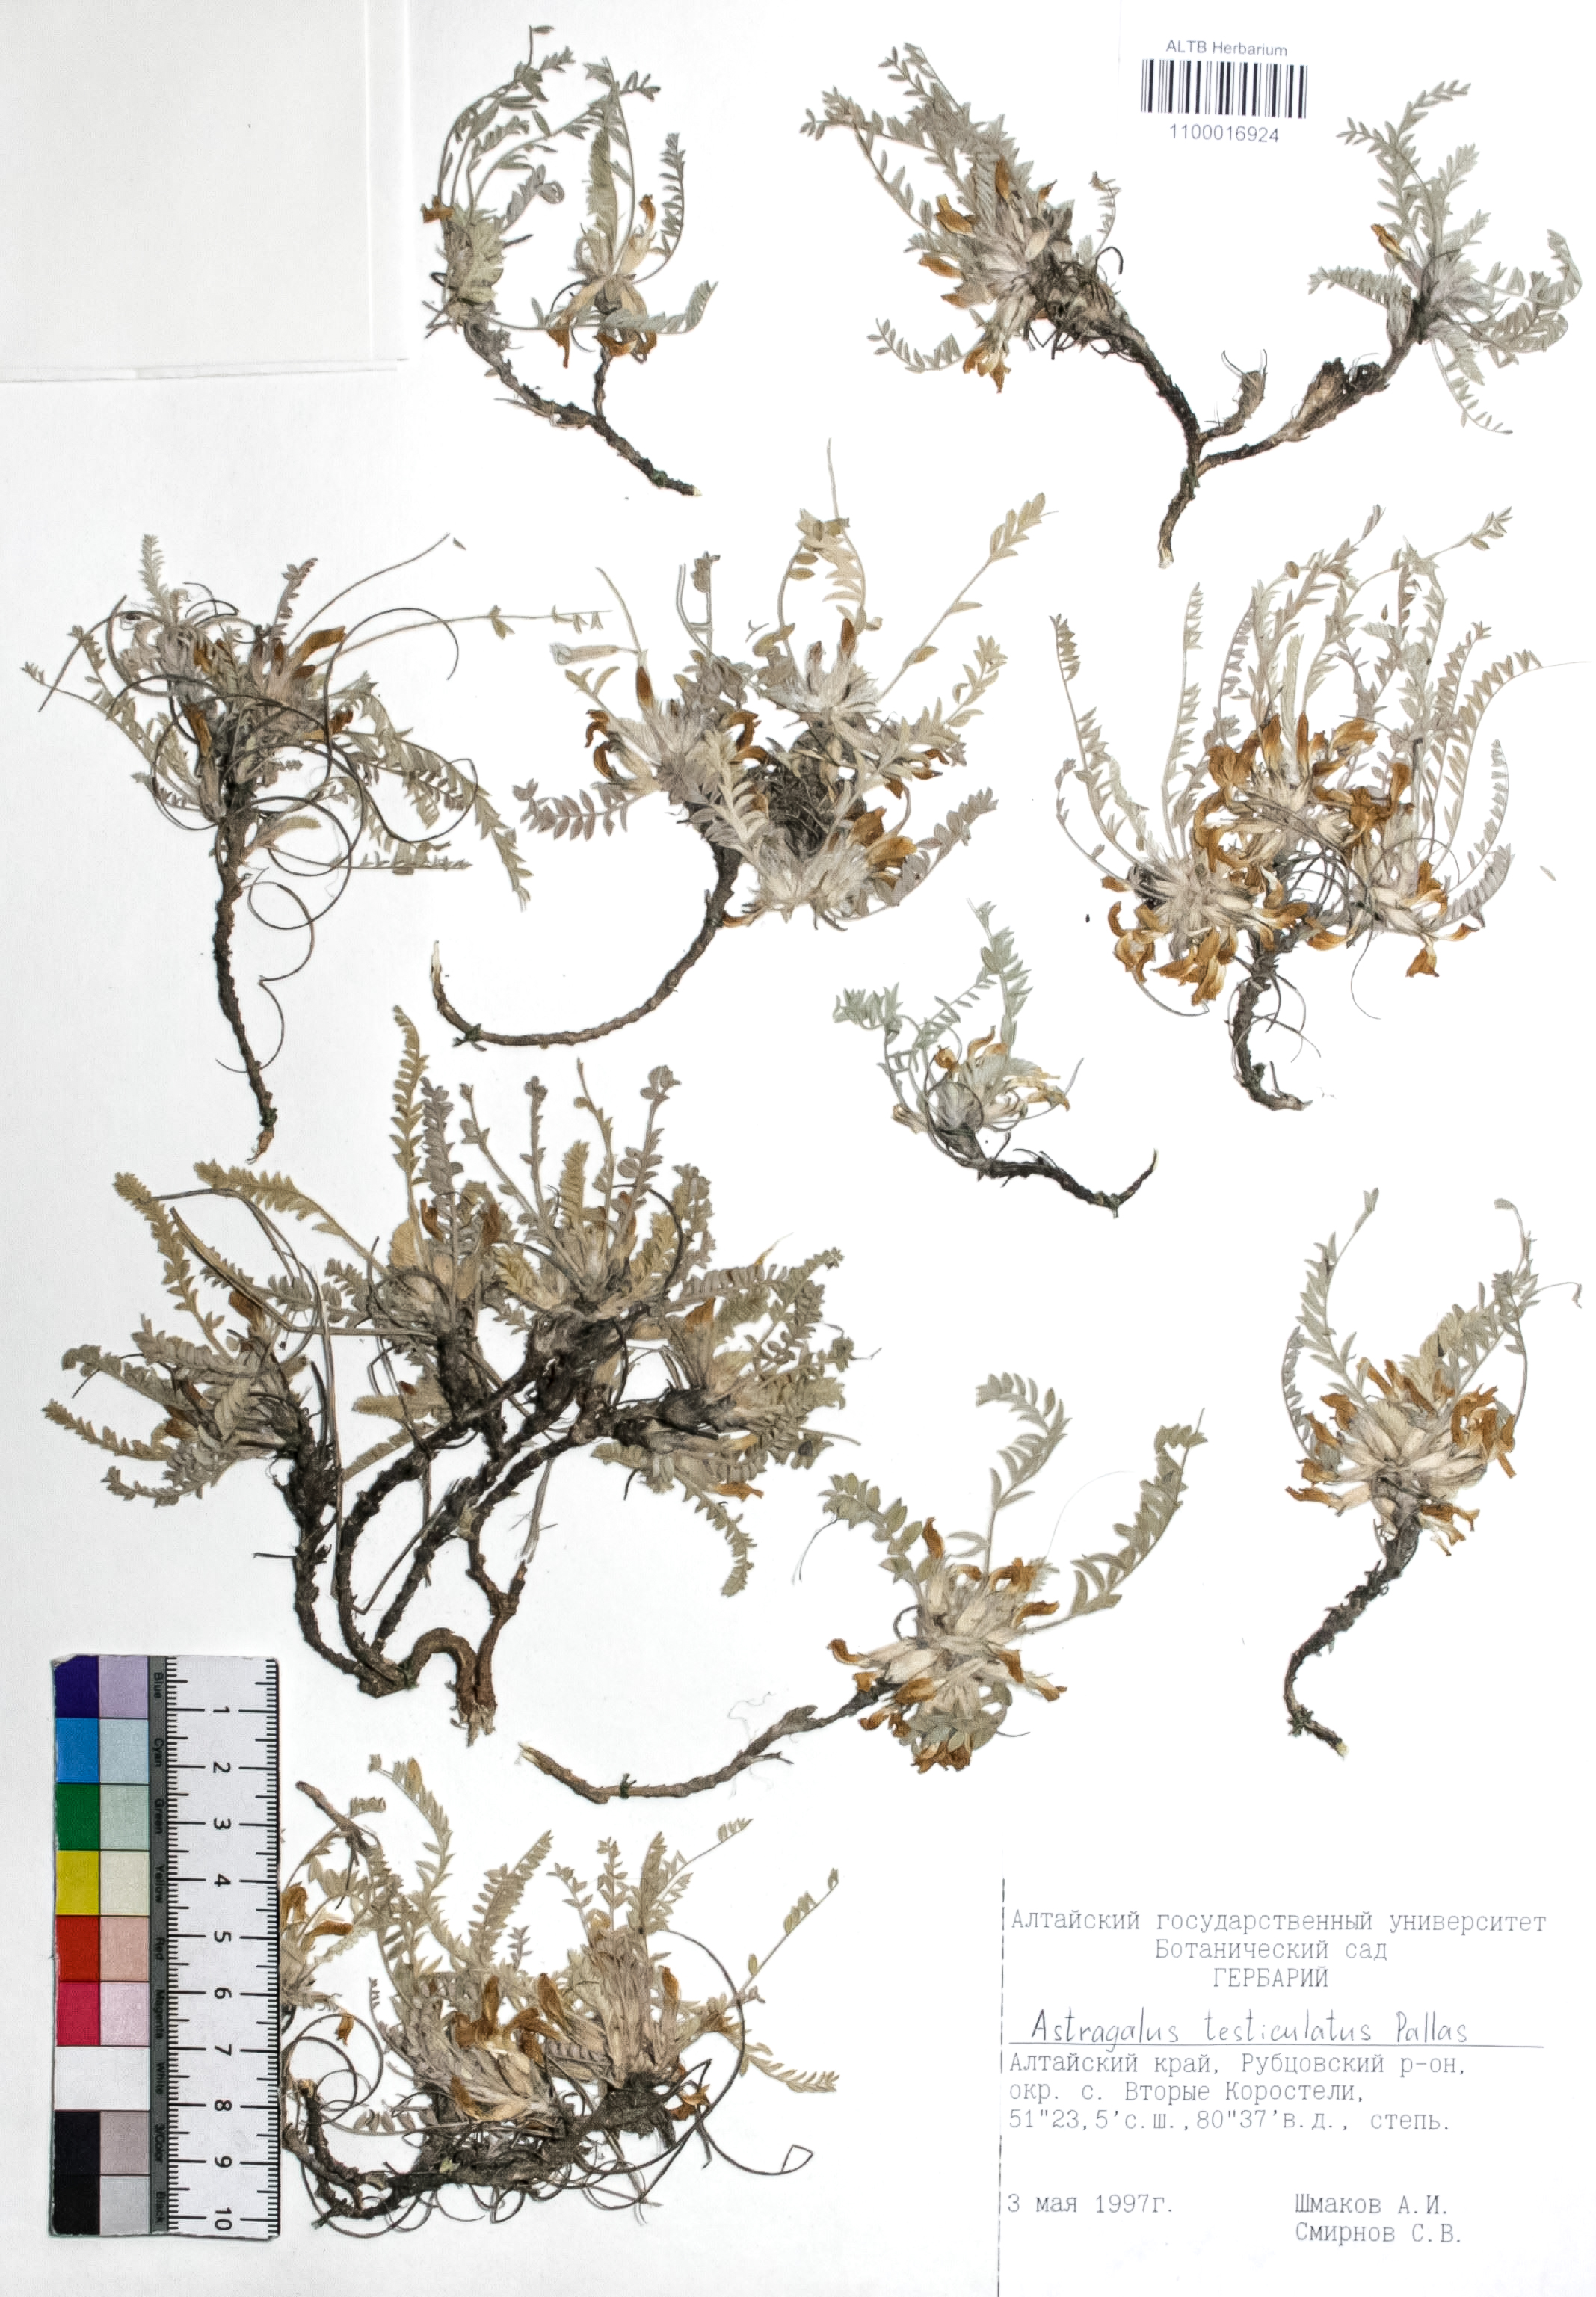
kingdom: Plantae
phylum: Tracheophyta
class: Magnoliopsida
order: Fabales
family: Fabaceae
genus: Astragalus
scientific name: Astragalus testiculatus
